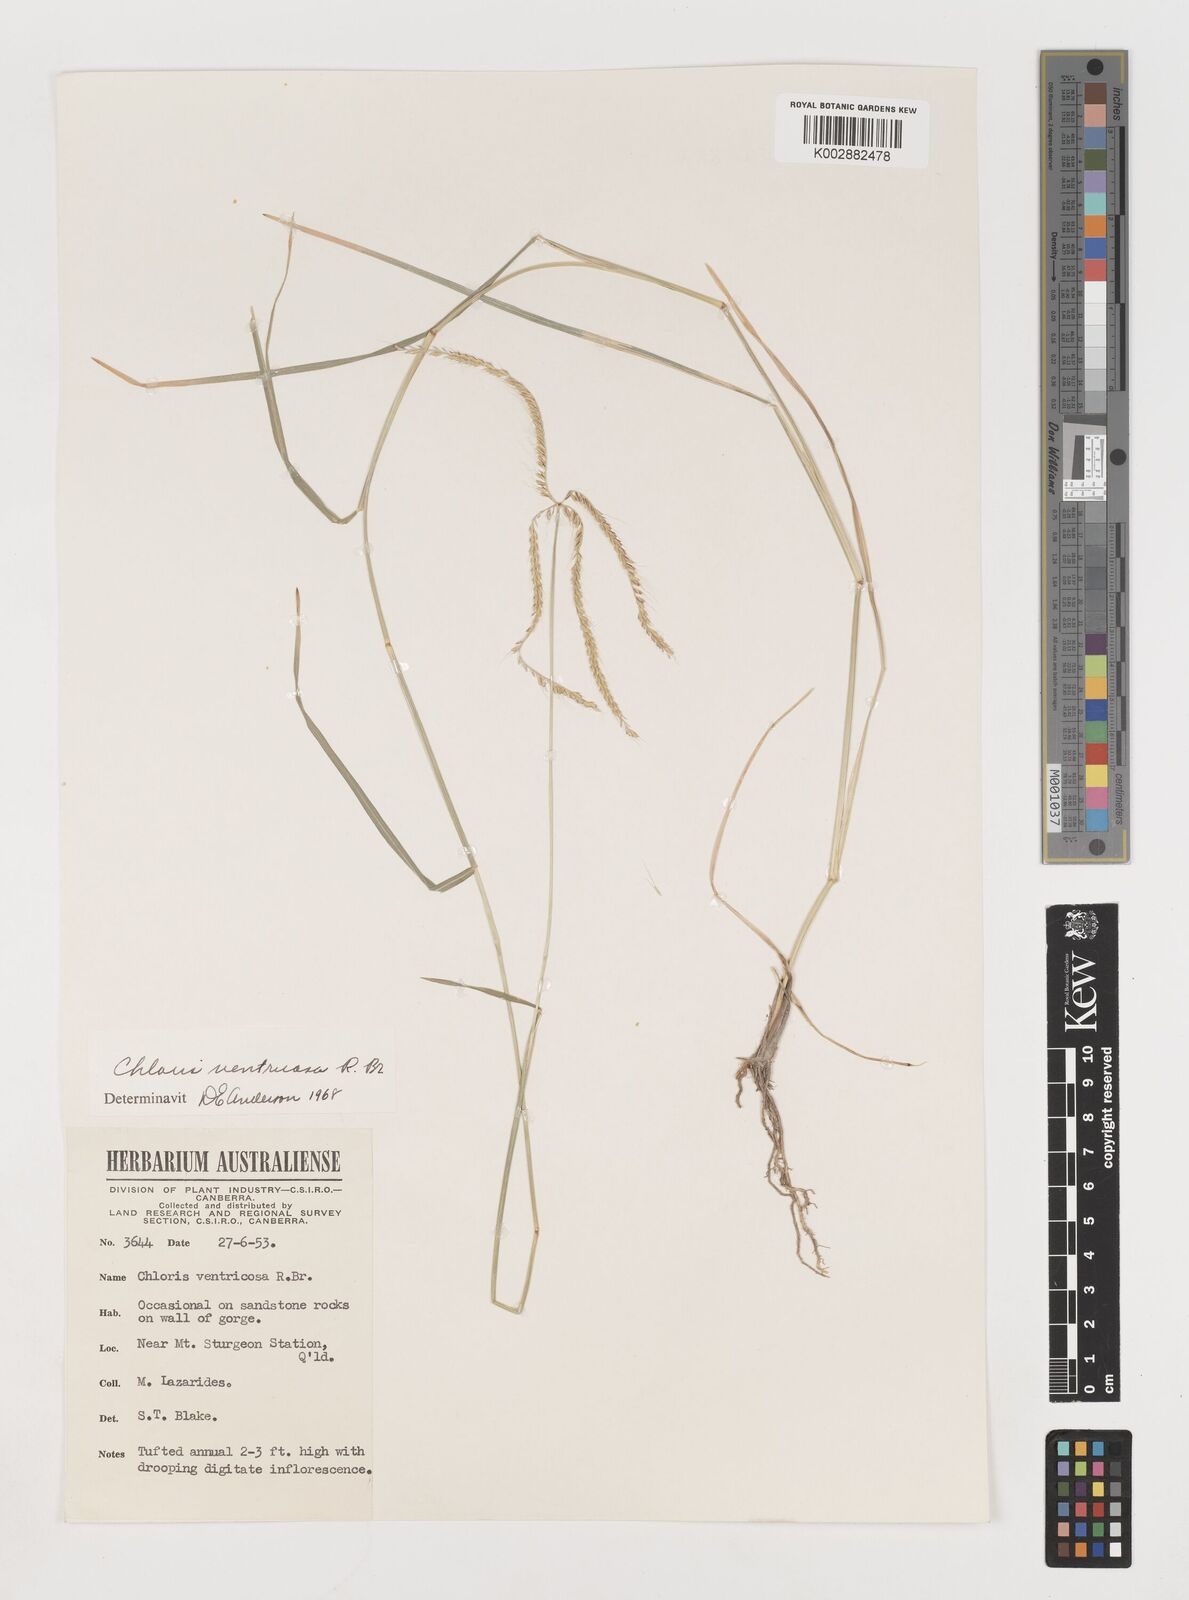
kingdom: Plantae
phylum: Tracheophyta
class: Liliopsida
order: Poales
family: Poaceae
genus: Chloris
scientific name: Chloris ventricosa
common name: Australian windmill grass
